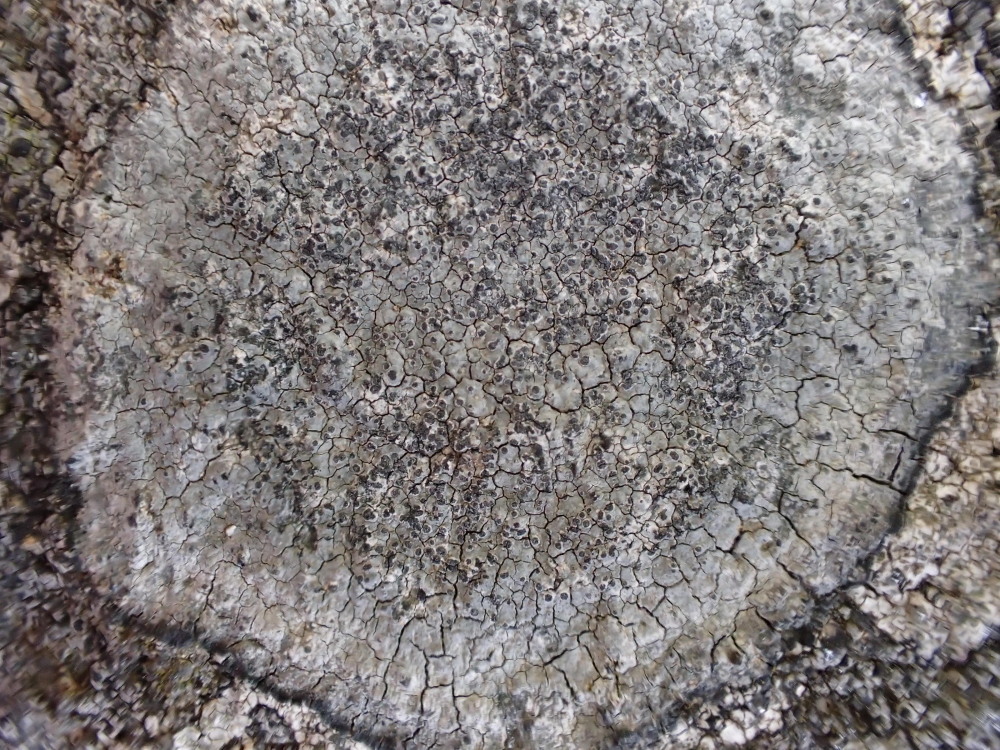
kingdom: Fungi
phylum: Ascomycota
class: Lecanoromycetes
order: Lecideales
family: Lecideaceae
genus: Porpidia
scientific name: Porpidia tuberculosa
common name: broget bredskivelav
